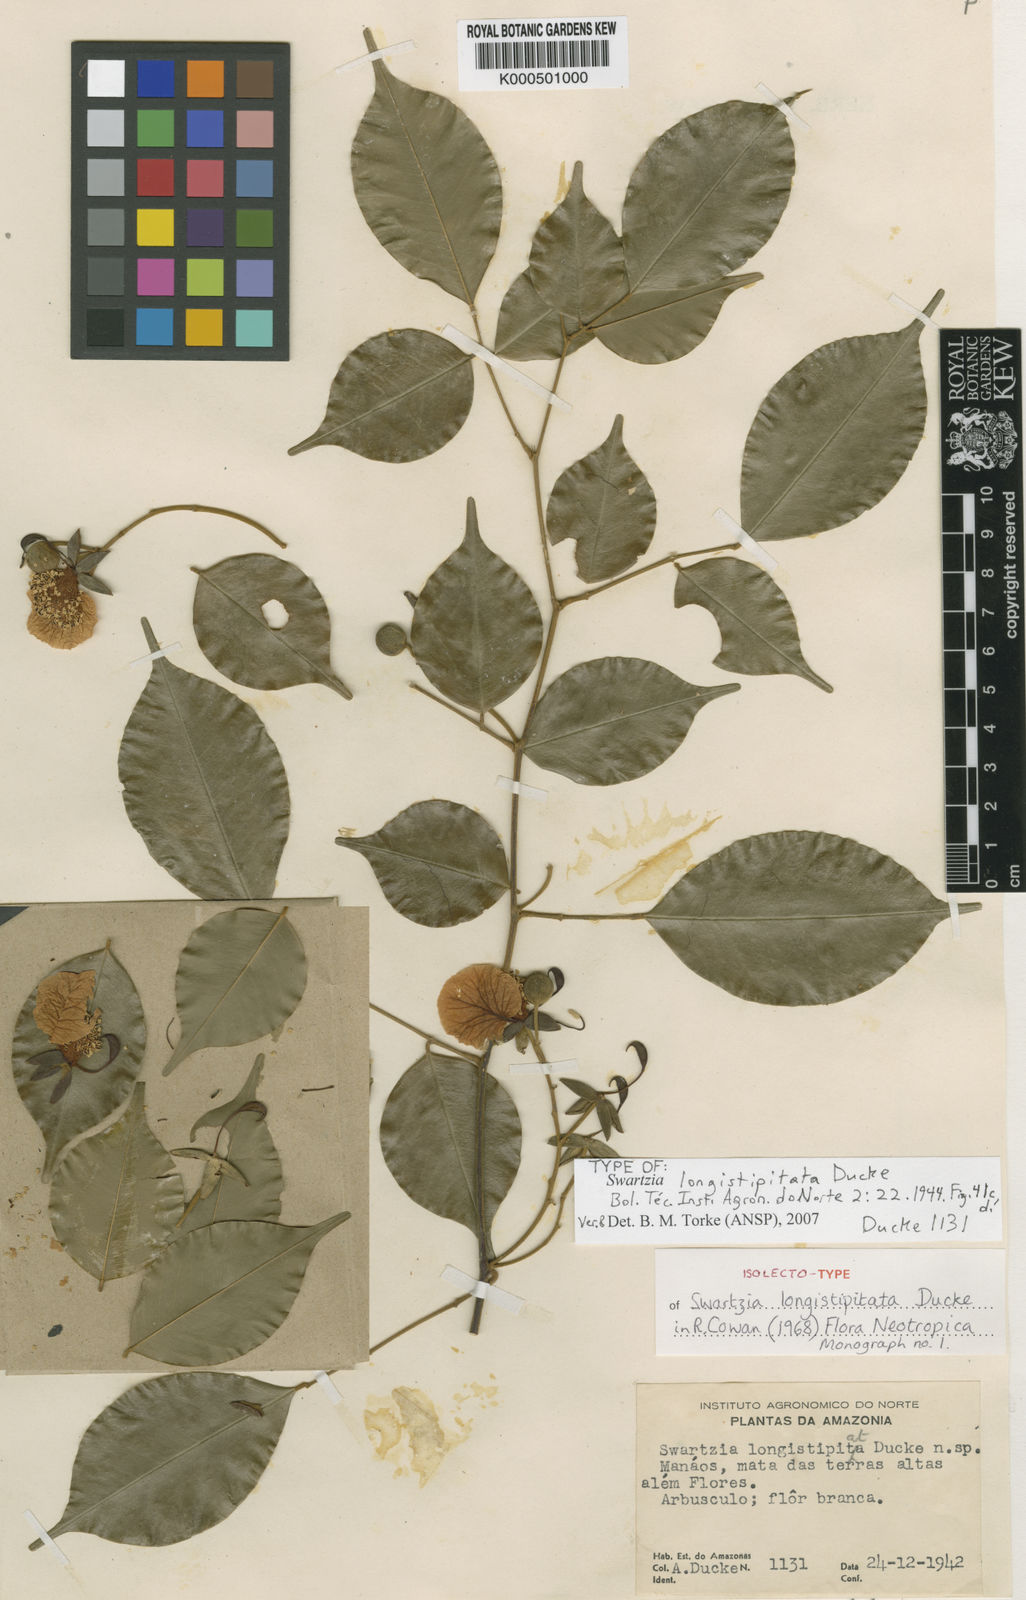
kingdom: Plantae
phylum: Tracheophyta
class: Magnoliopsida
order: Fabales
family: Fabaceae
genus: Swartzia
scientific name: Swartzia longistipitata
